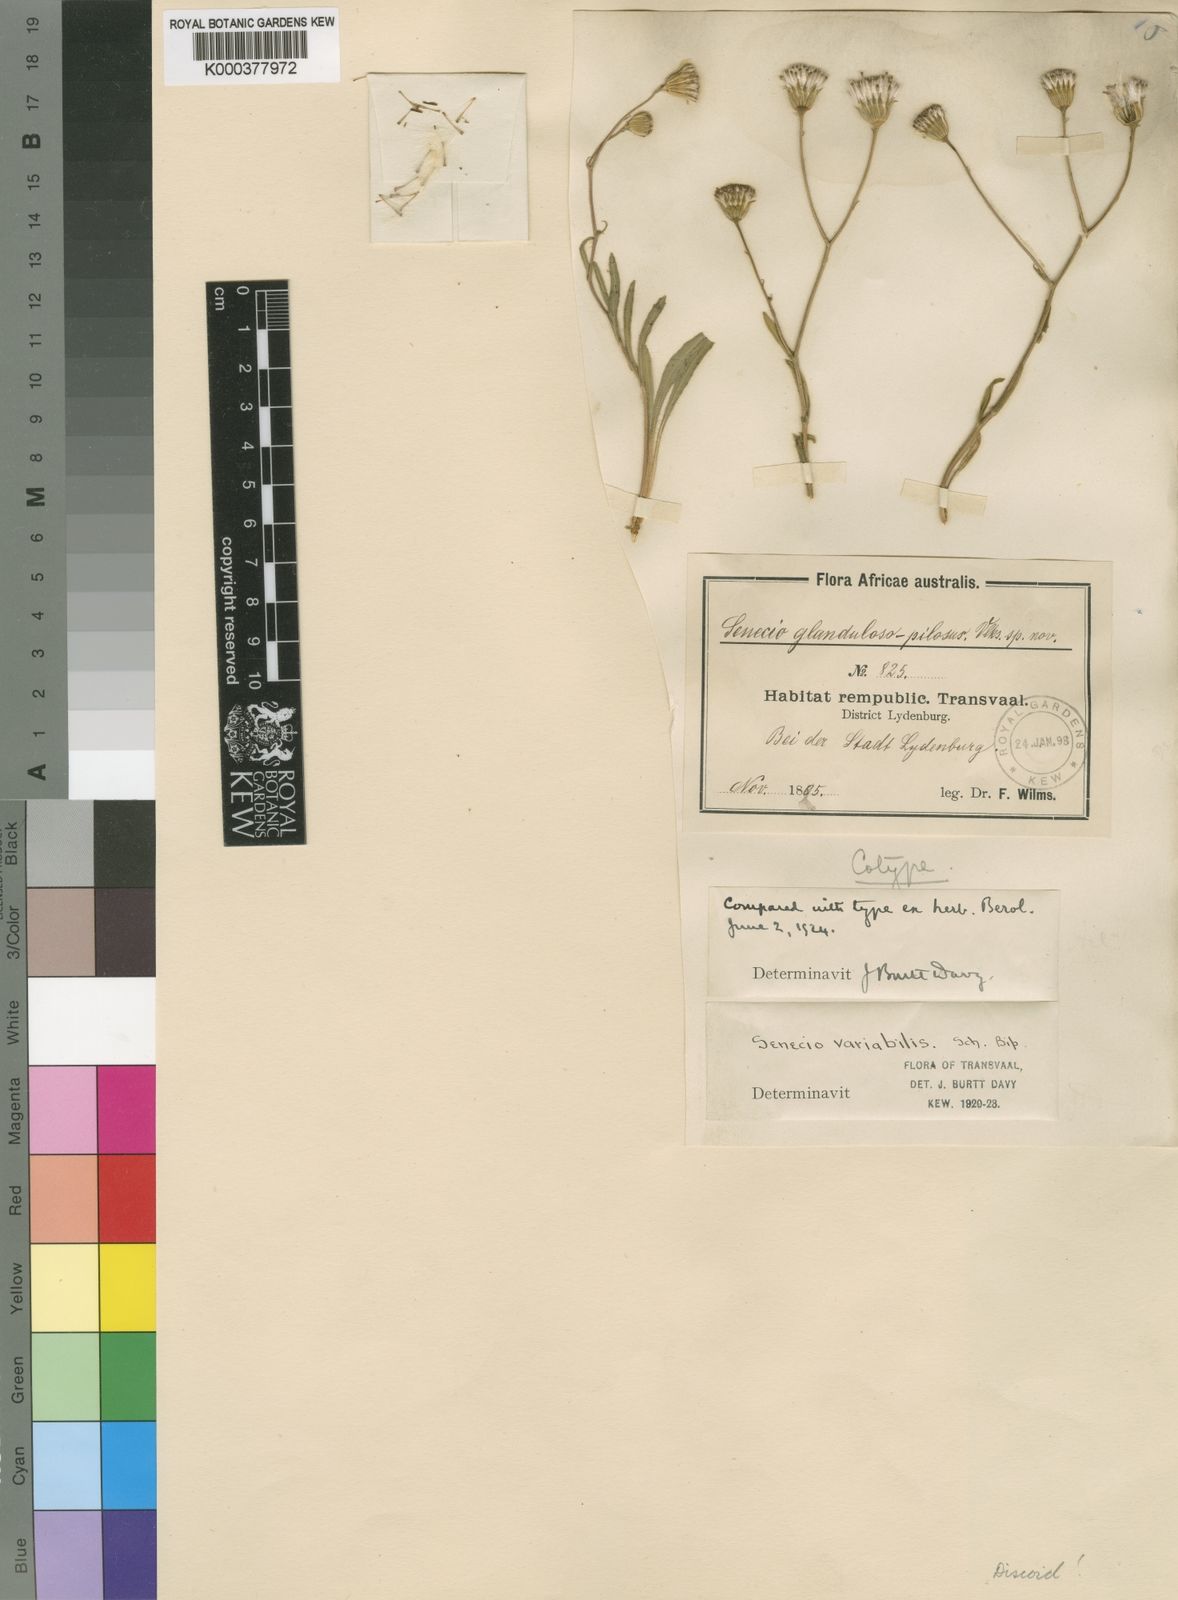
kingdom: Plantae
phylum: Tracheophyta
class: Magnoliopsida
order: Asterales
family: Asteraceae
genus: Senecio
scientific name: Senecio glanduloso-pilosus
